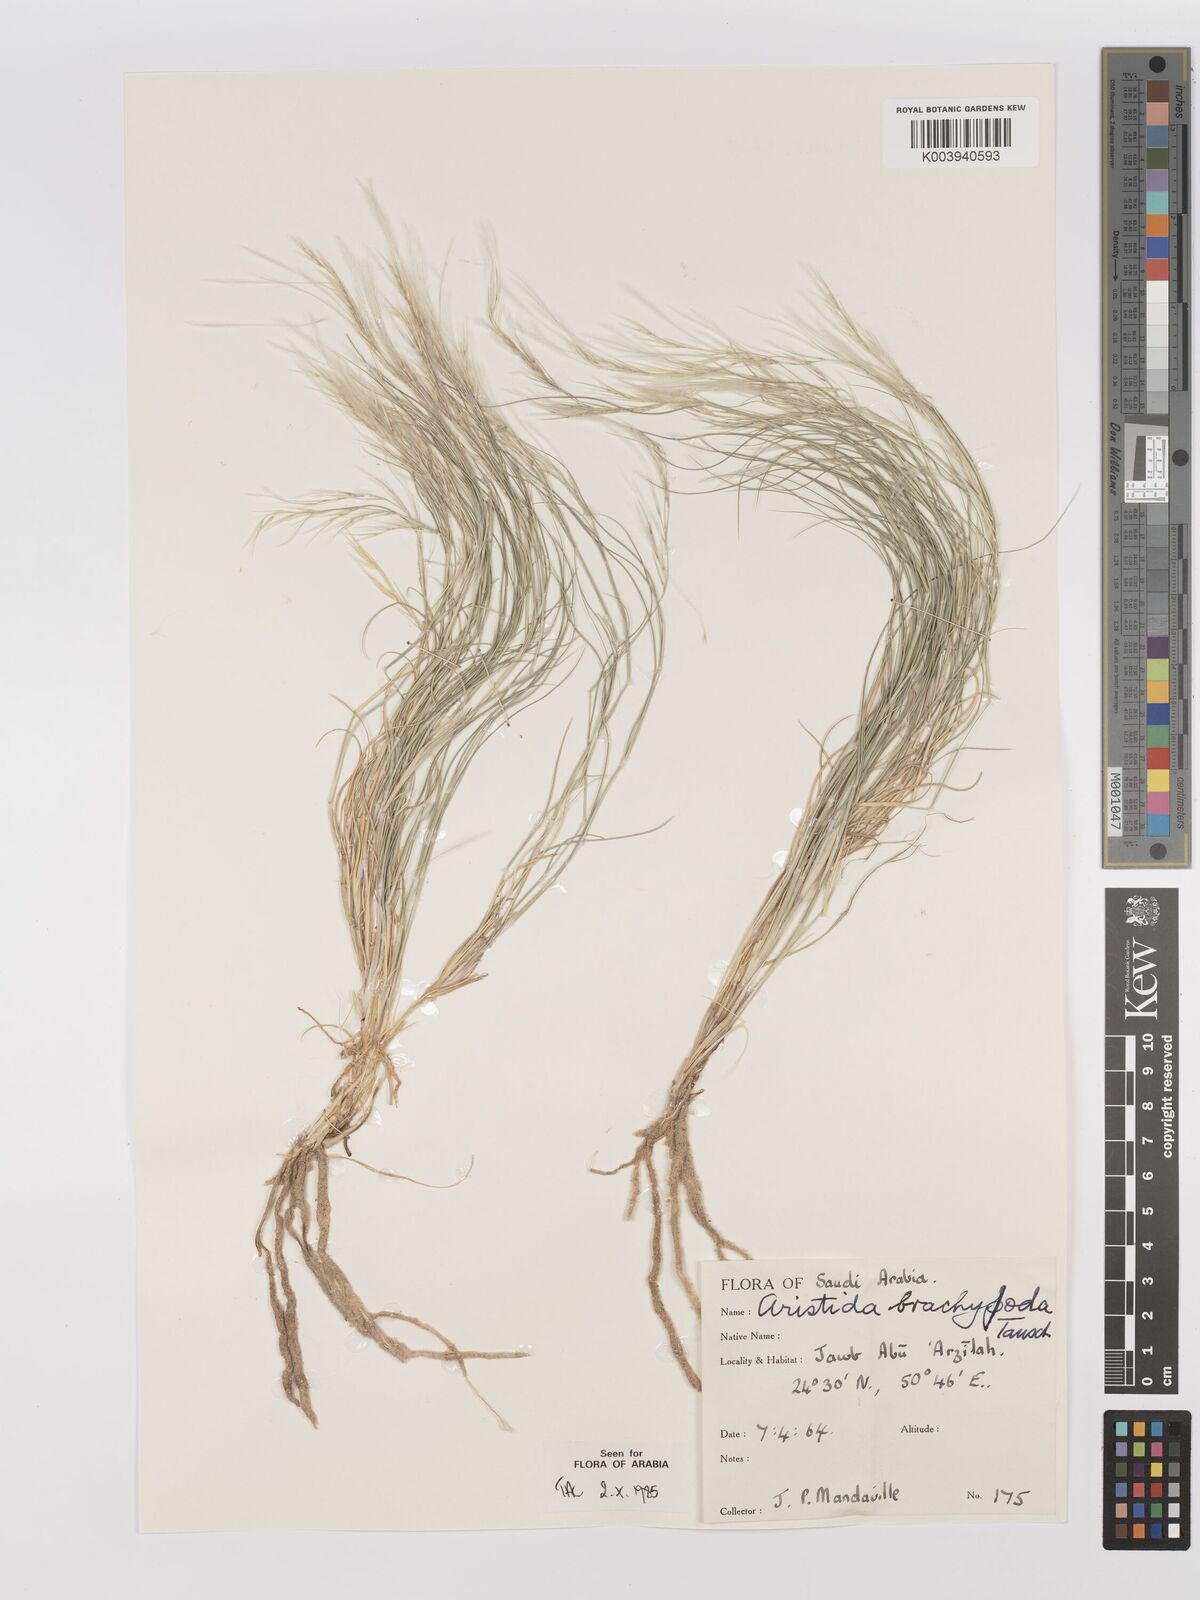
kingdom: Plantae
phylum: Tracheophyta
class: Liliopsida
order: Poales
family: Poaceae
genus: Stipagrostis
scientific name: Stipagrostis plumosa
